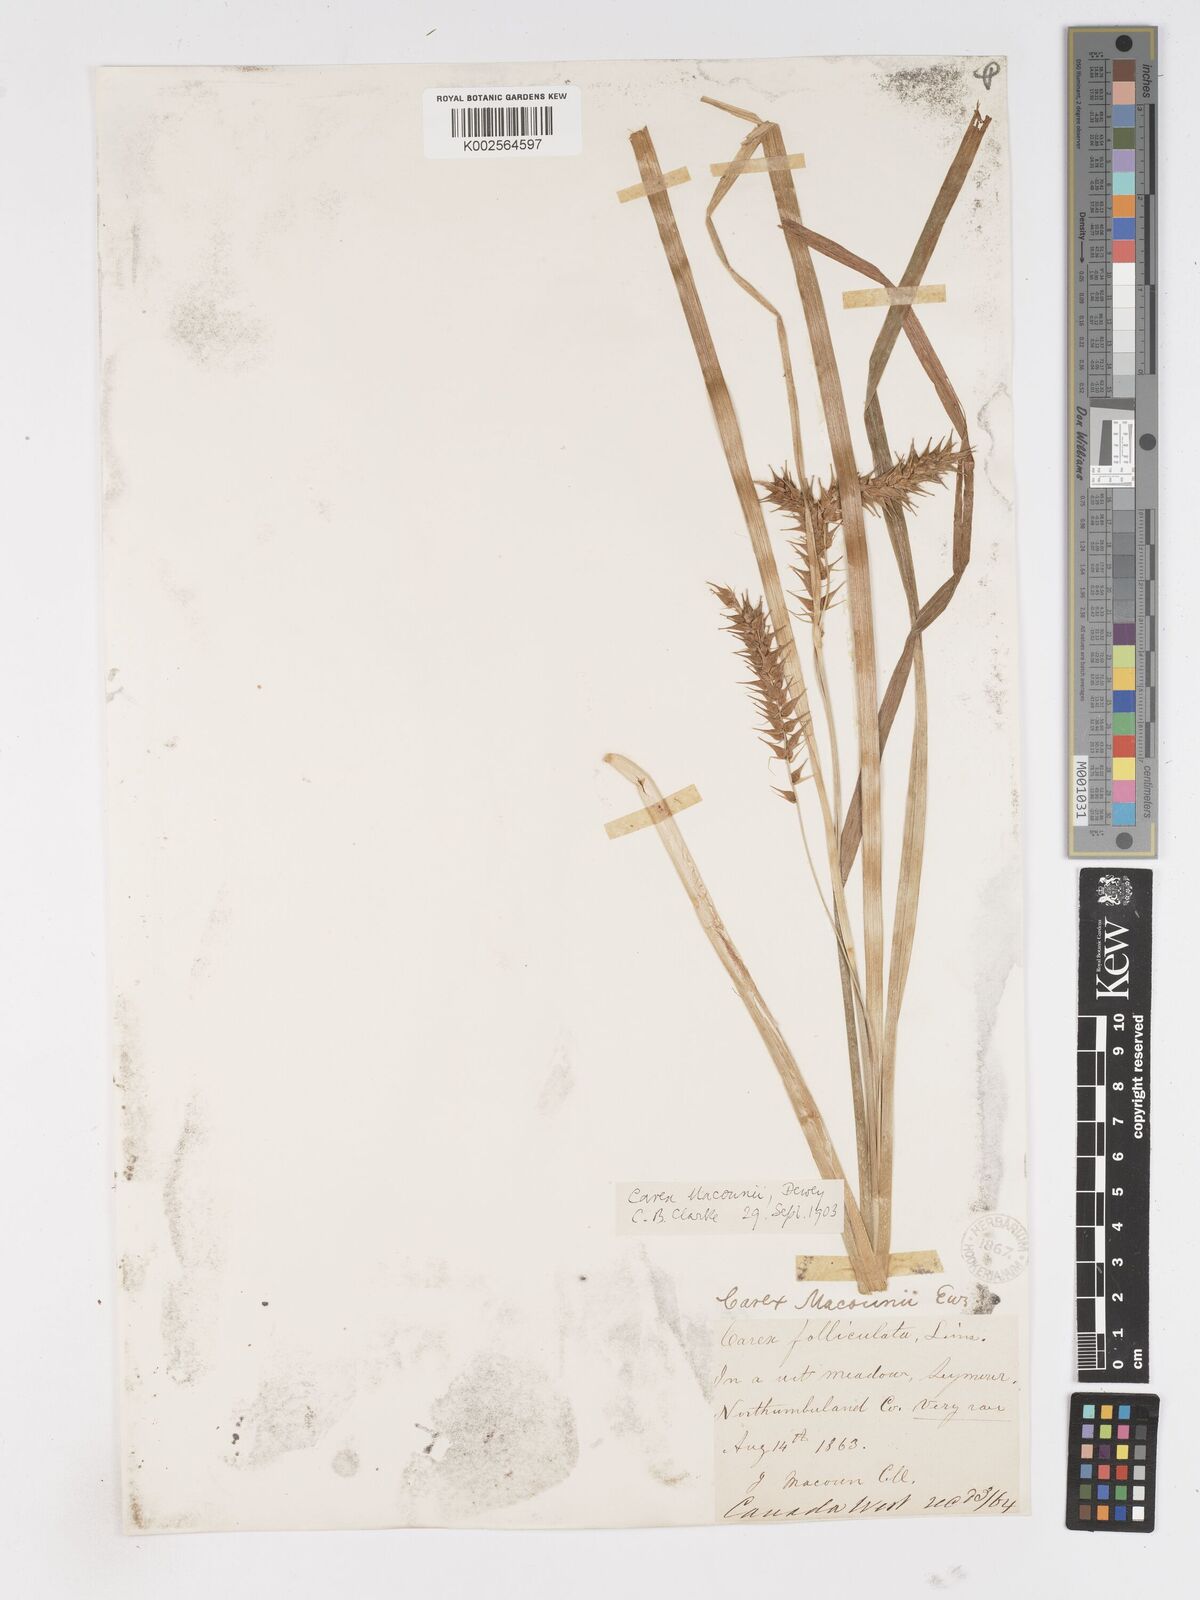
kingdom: Plantae
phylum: Tracheophyta
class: Liliopsida
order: Poales
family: Cyperaceae
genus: Carex
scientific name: Carex lupulina
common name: Hop sedge
